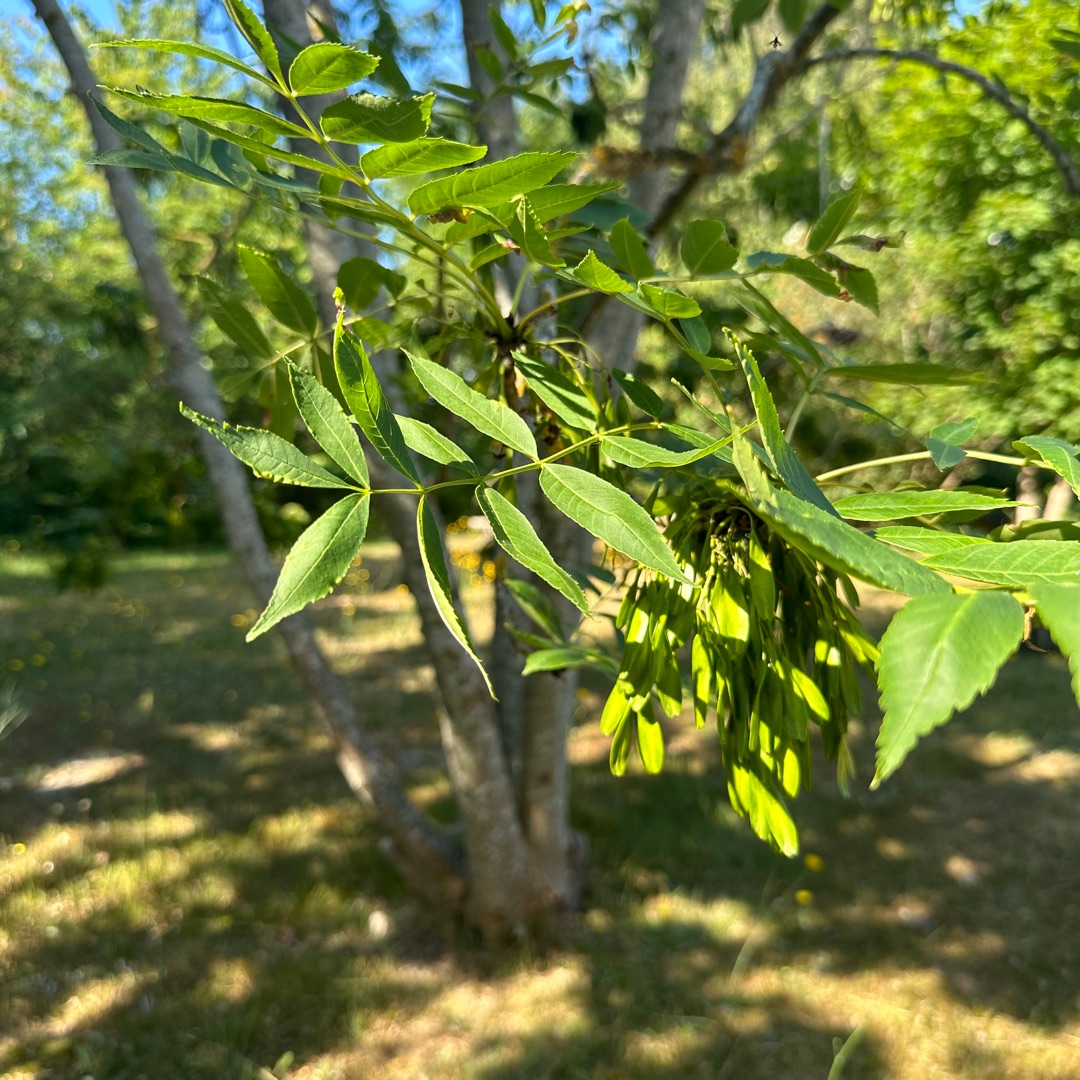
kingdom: Plantae
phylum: Tracheophyta
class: Magnoliopsida
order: Lamiales
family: Oleaceae
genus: Fraxinus
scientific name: Fraxinus excelsior
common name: Ask
